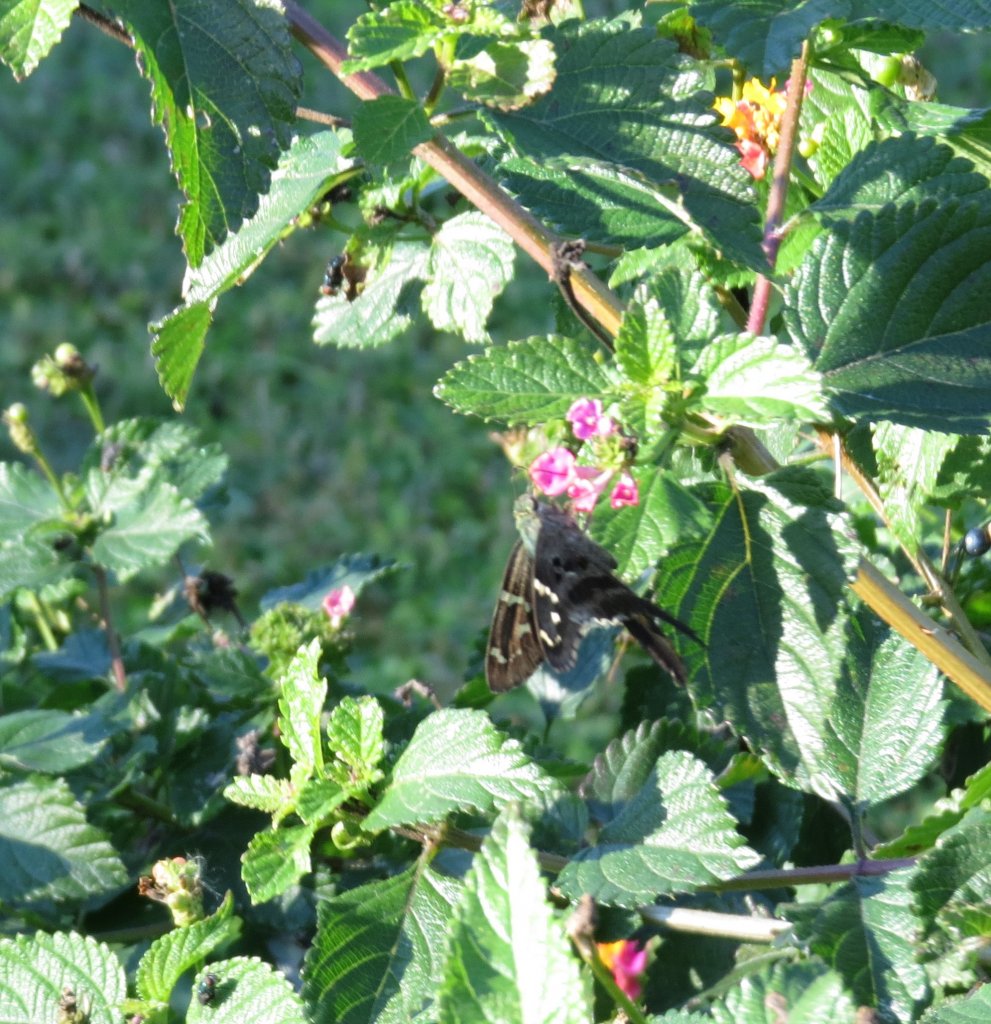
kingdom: Animalia
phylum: Arthropoda
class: Insecta
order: Lepidoptera
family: Hesperiidae
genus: Urbanus
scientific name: Urbanus proteus
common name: Long-tailed Skipper
